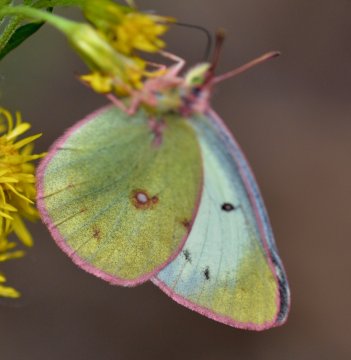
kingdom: Animalia
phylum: Arthropoda
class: Insecta
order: Lepidoptera
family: Pieridae
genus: Colias
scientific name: Colias philodice
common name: Clouded Sulphur
